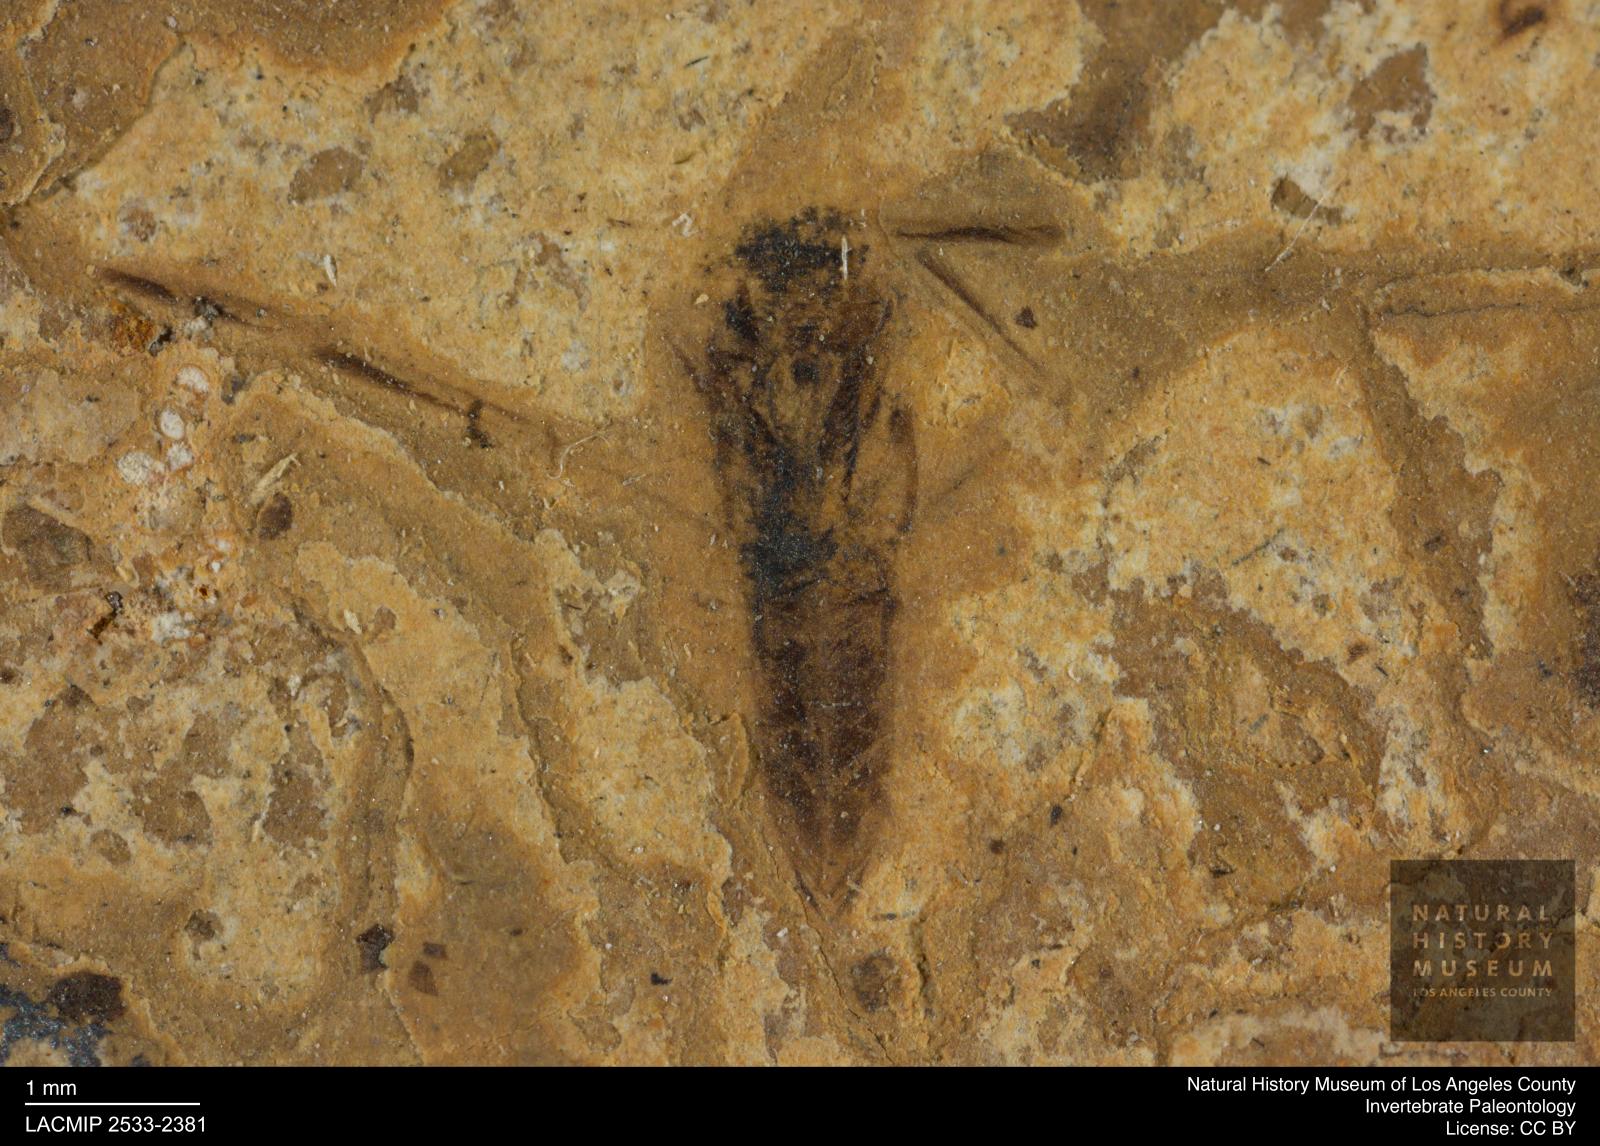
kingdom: Animalia
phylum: Arthropoda
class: Insecta
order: Hemiptera
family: Notonectidae
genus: Anisops
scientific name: Anisops Notonecta deichmuelleri
